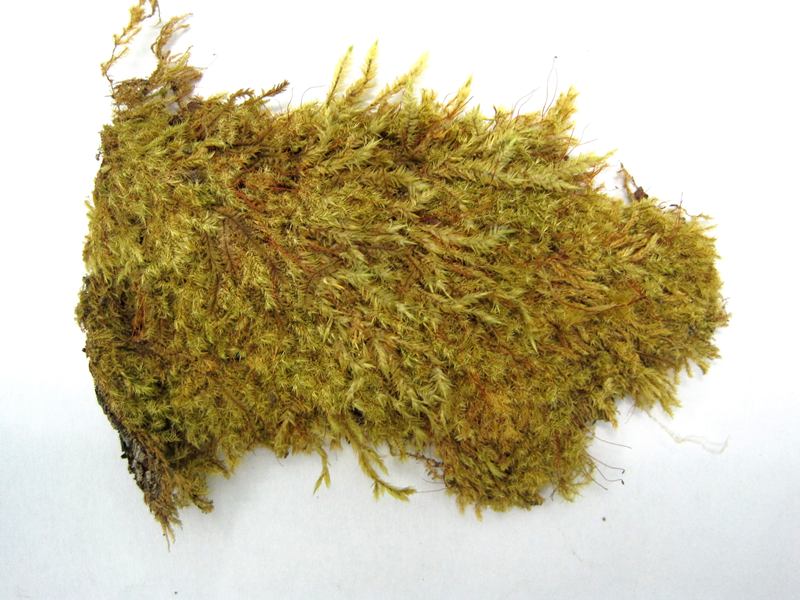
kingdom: Plantae
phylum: Bryophyta
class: Bryopsida
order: Hypnales
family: Sematophyllaceae
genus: Acroporium
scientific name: Acroporium hyalinum
